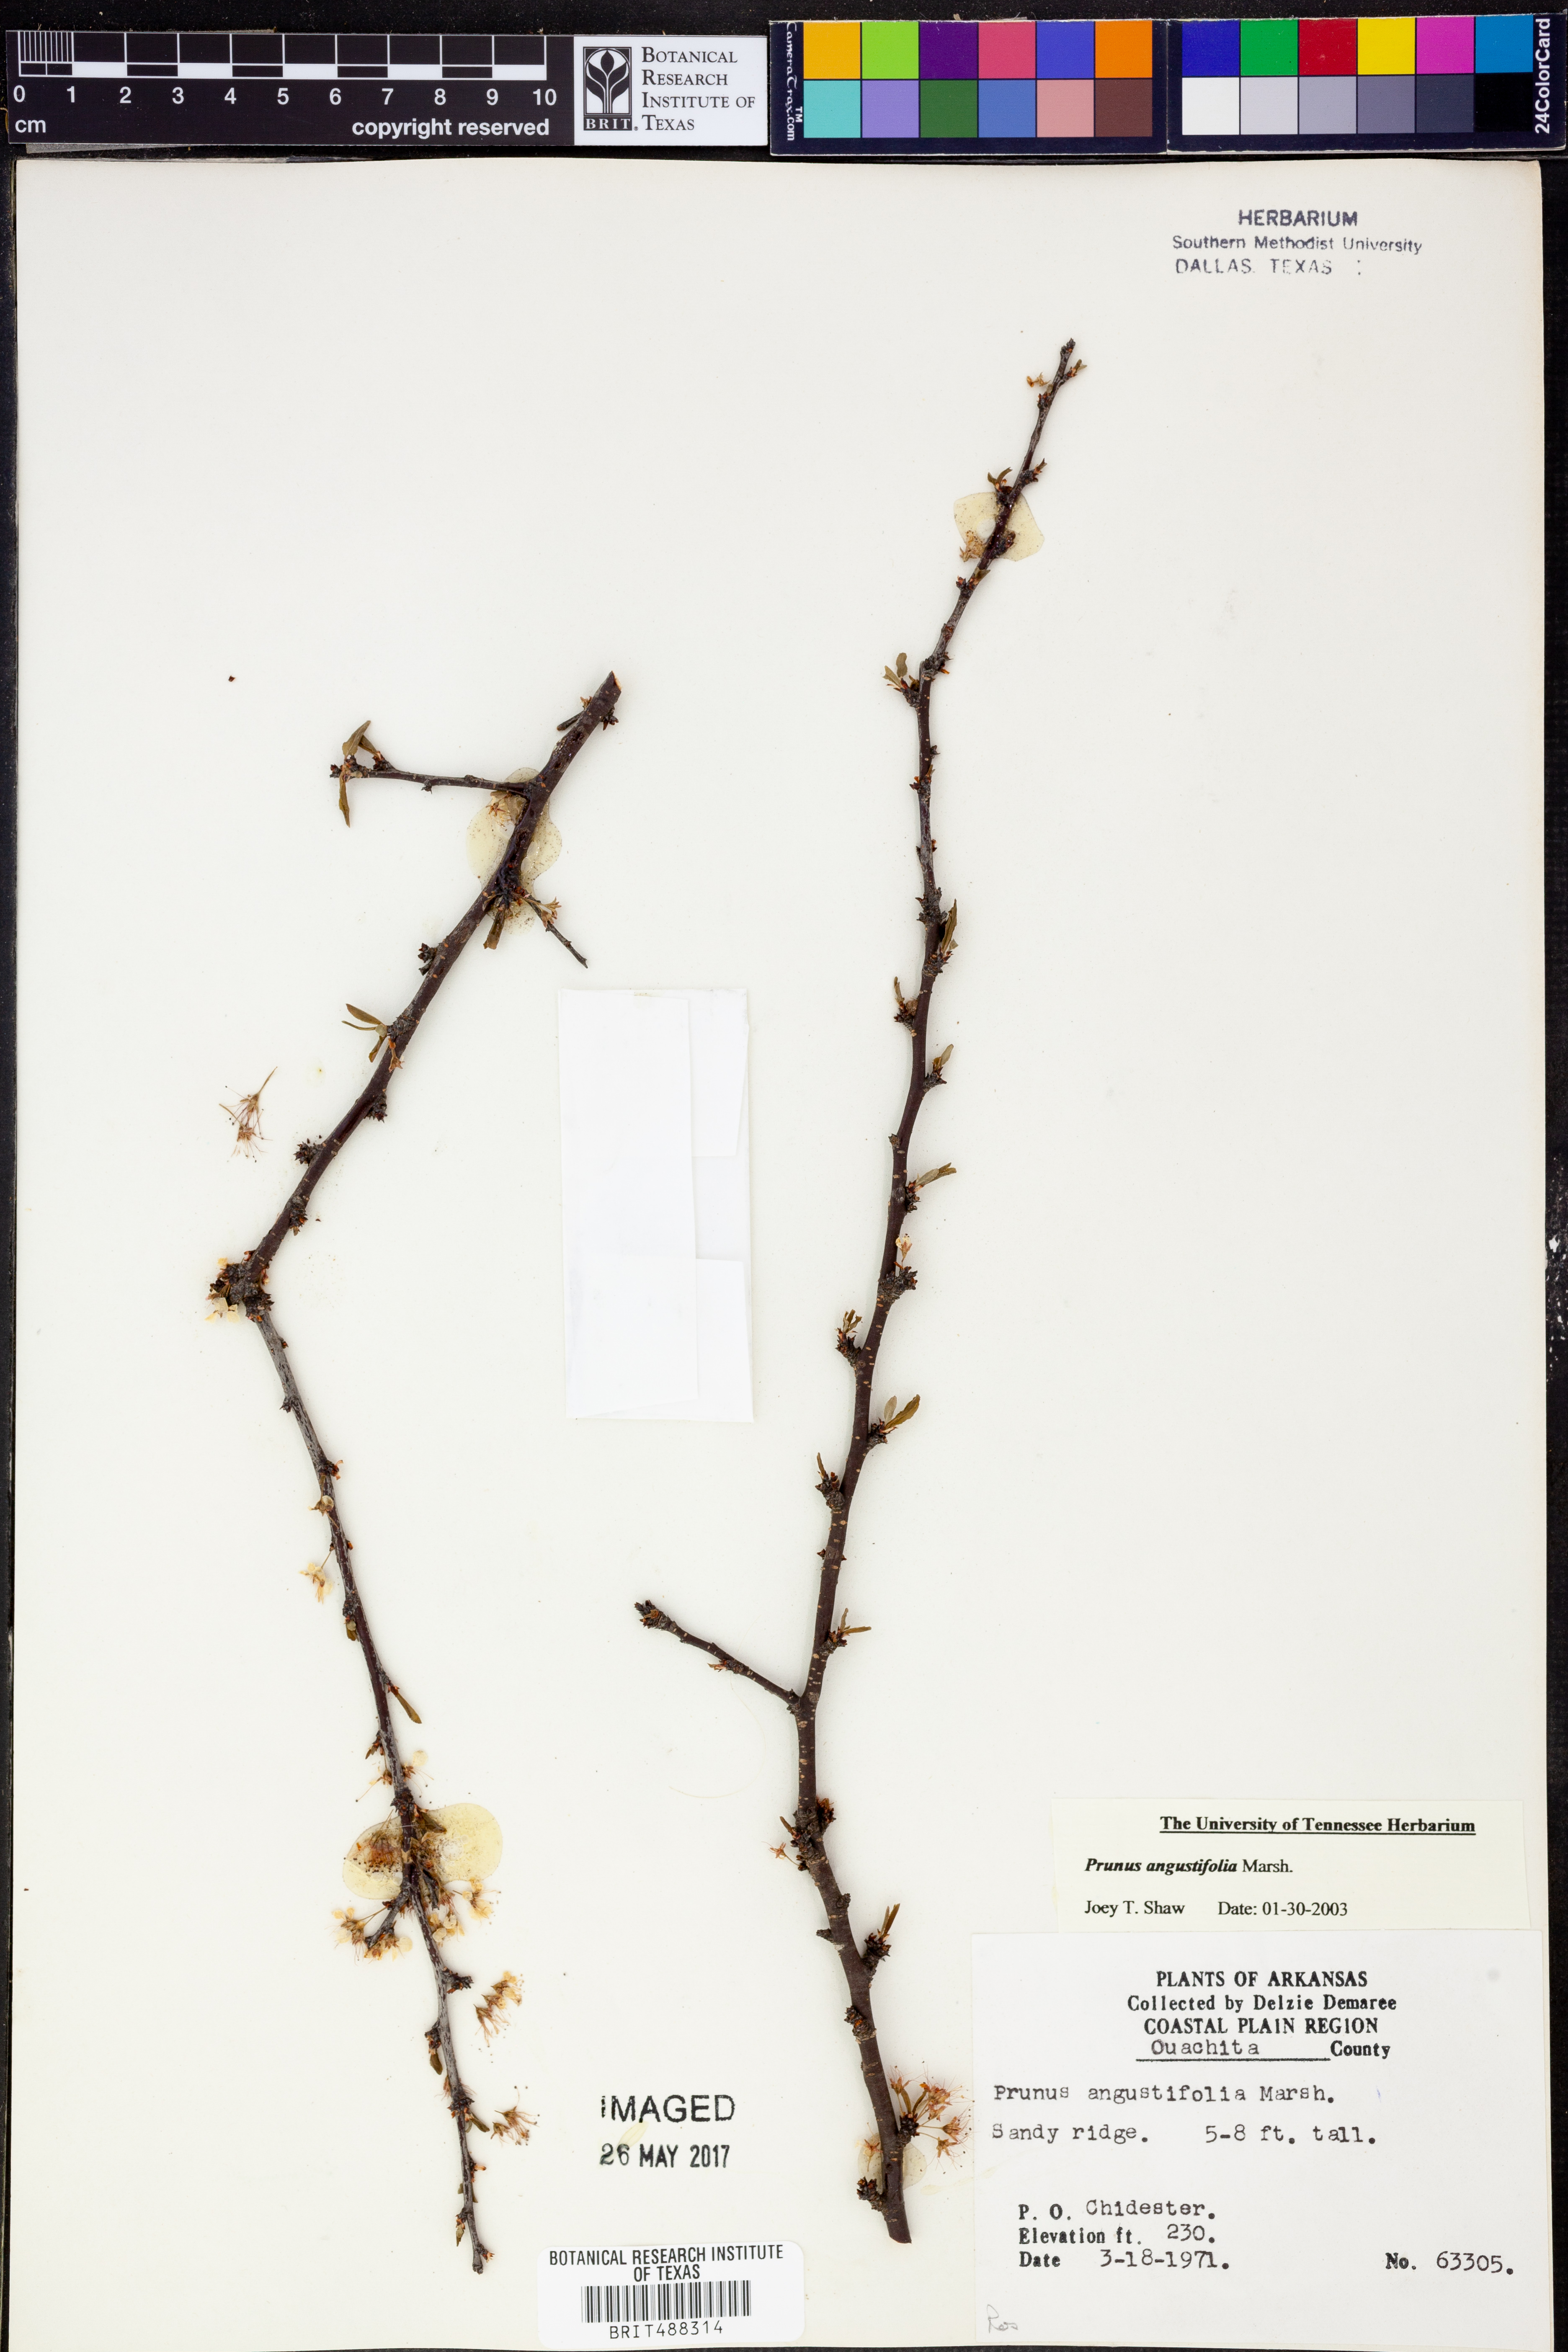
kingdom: Plantae
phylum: Tracheophyta
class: Magnoliopsida
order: Rosales
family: Rosaceae
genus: Prunus
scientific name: Prunus angustifolia
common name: Cherokee plum
